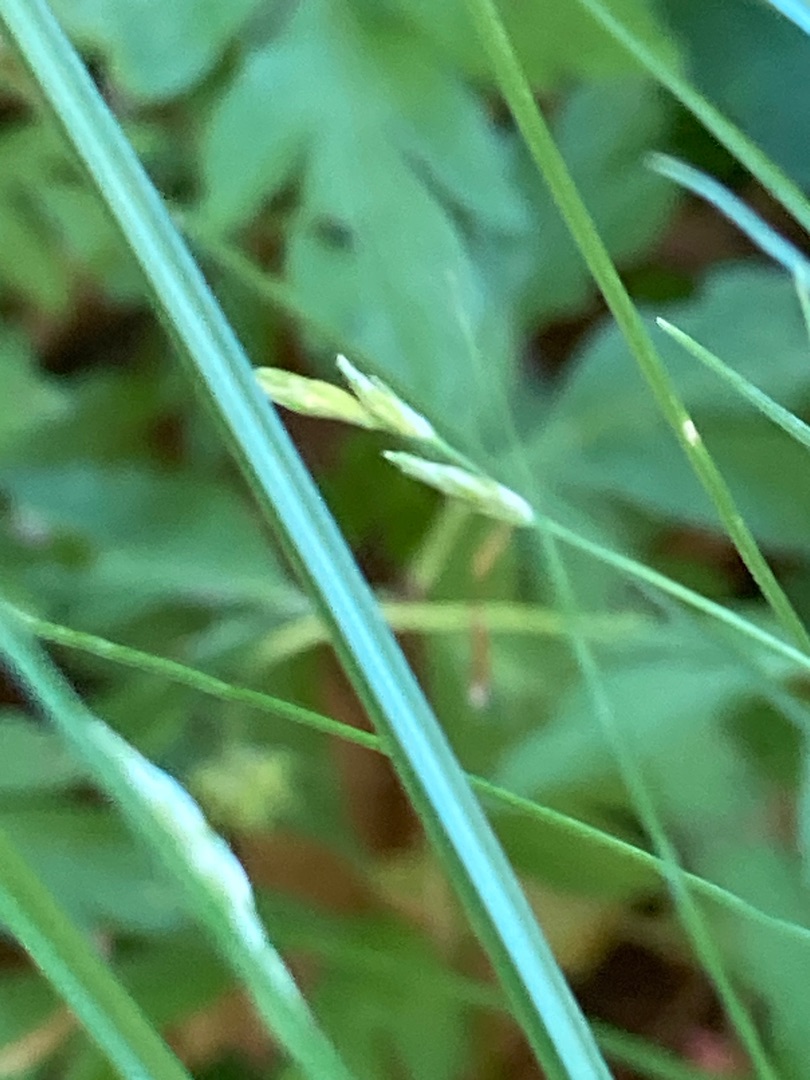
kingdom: Plantae
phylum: Tracheophyta
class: Liliopsida
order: Poales
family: Cyperaceae
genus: Carex
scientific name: Carex remota
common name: Akselblomstret star
